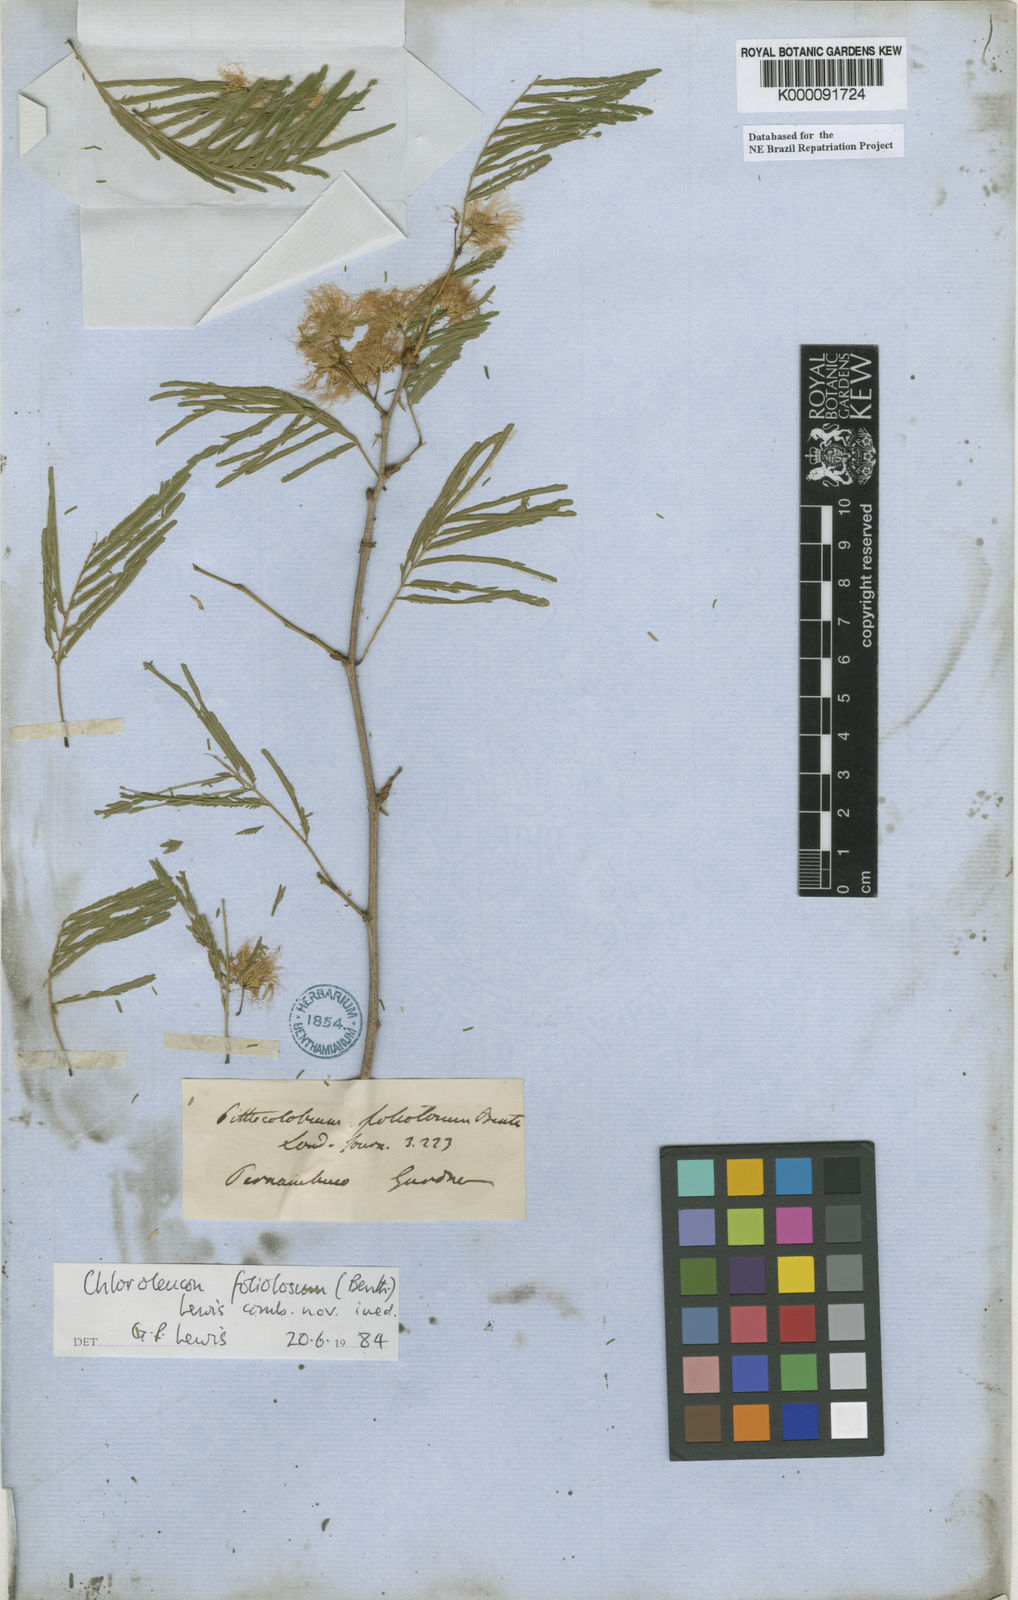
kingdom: Plantae
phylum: Tracheophyta
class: Magnoliopsida
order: Fabales
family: Fabaceae
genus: Chloroleucon
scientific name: Chloroleucon foliolosum
